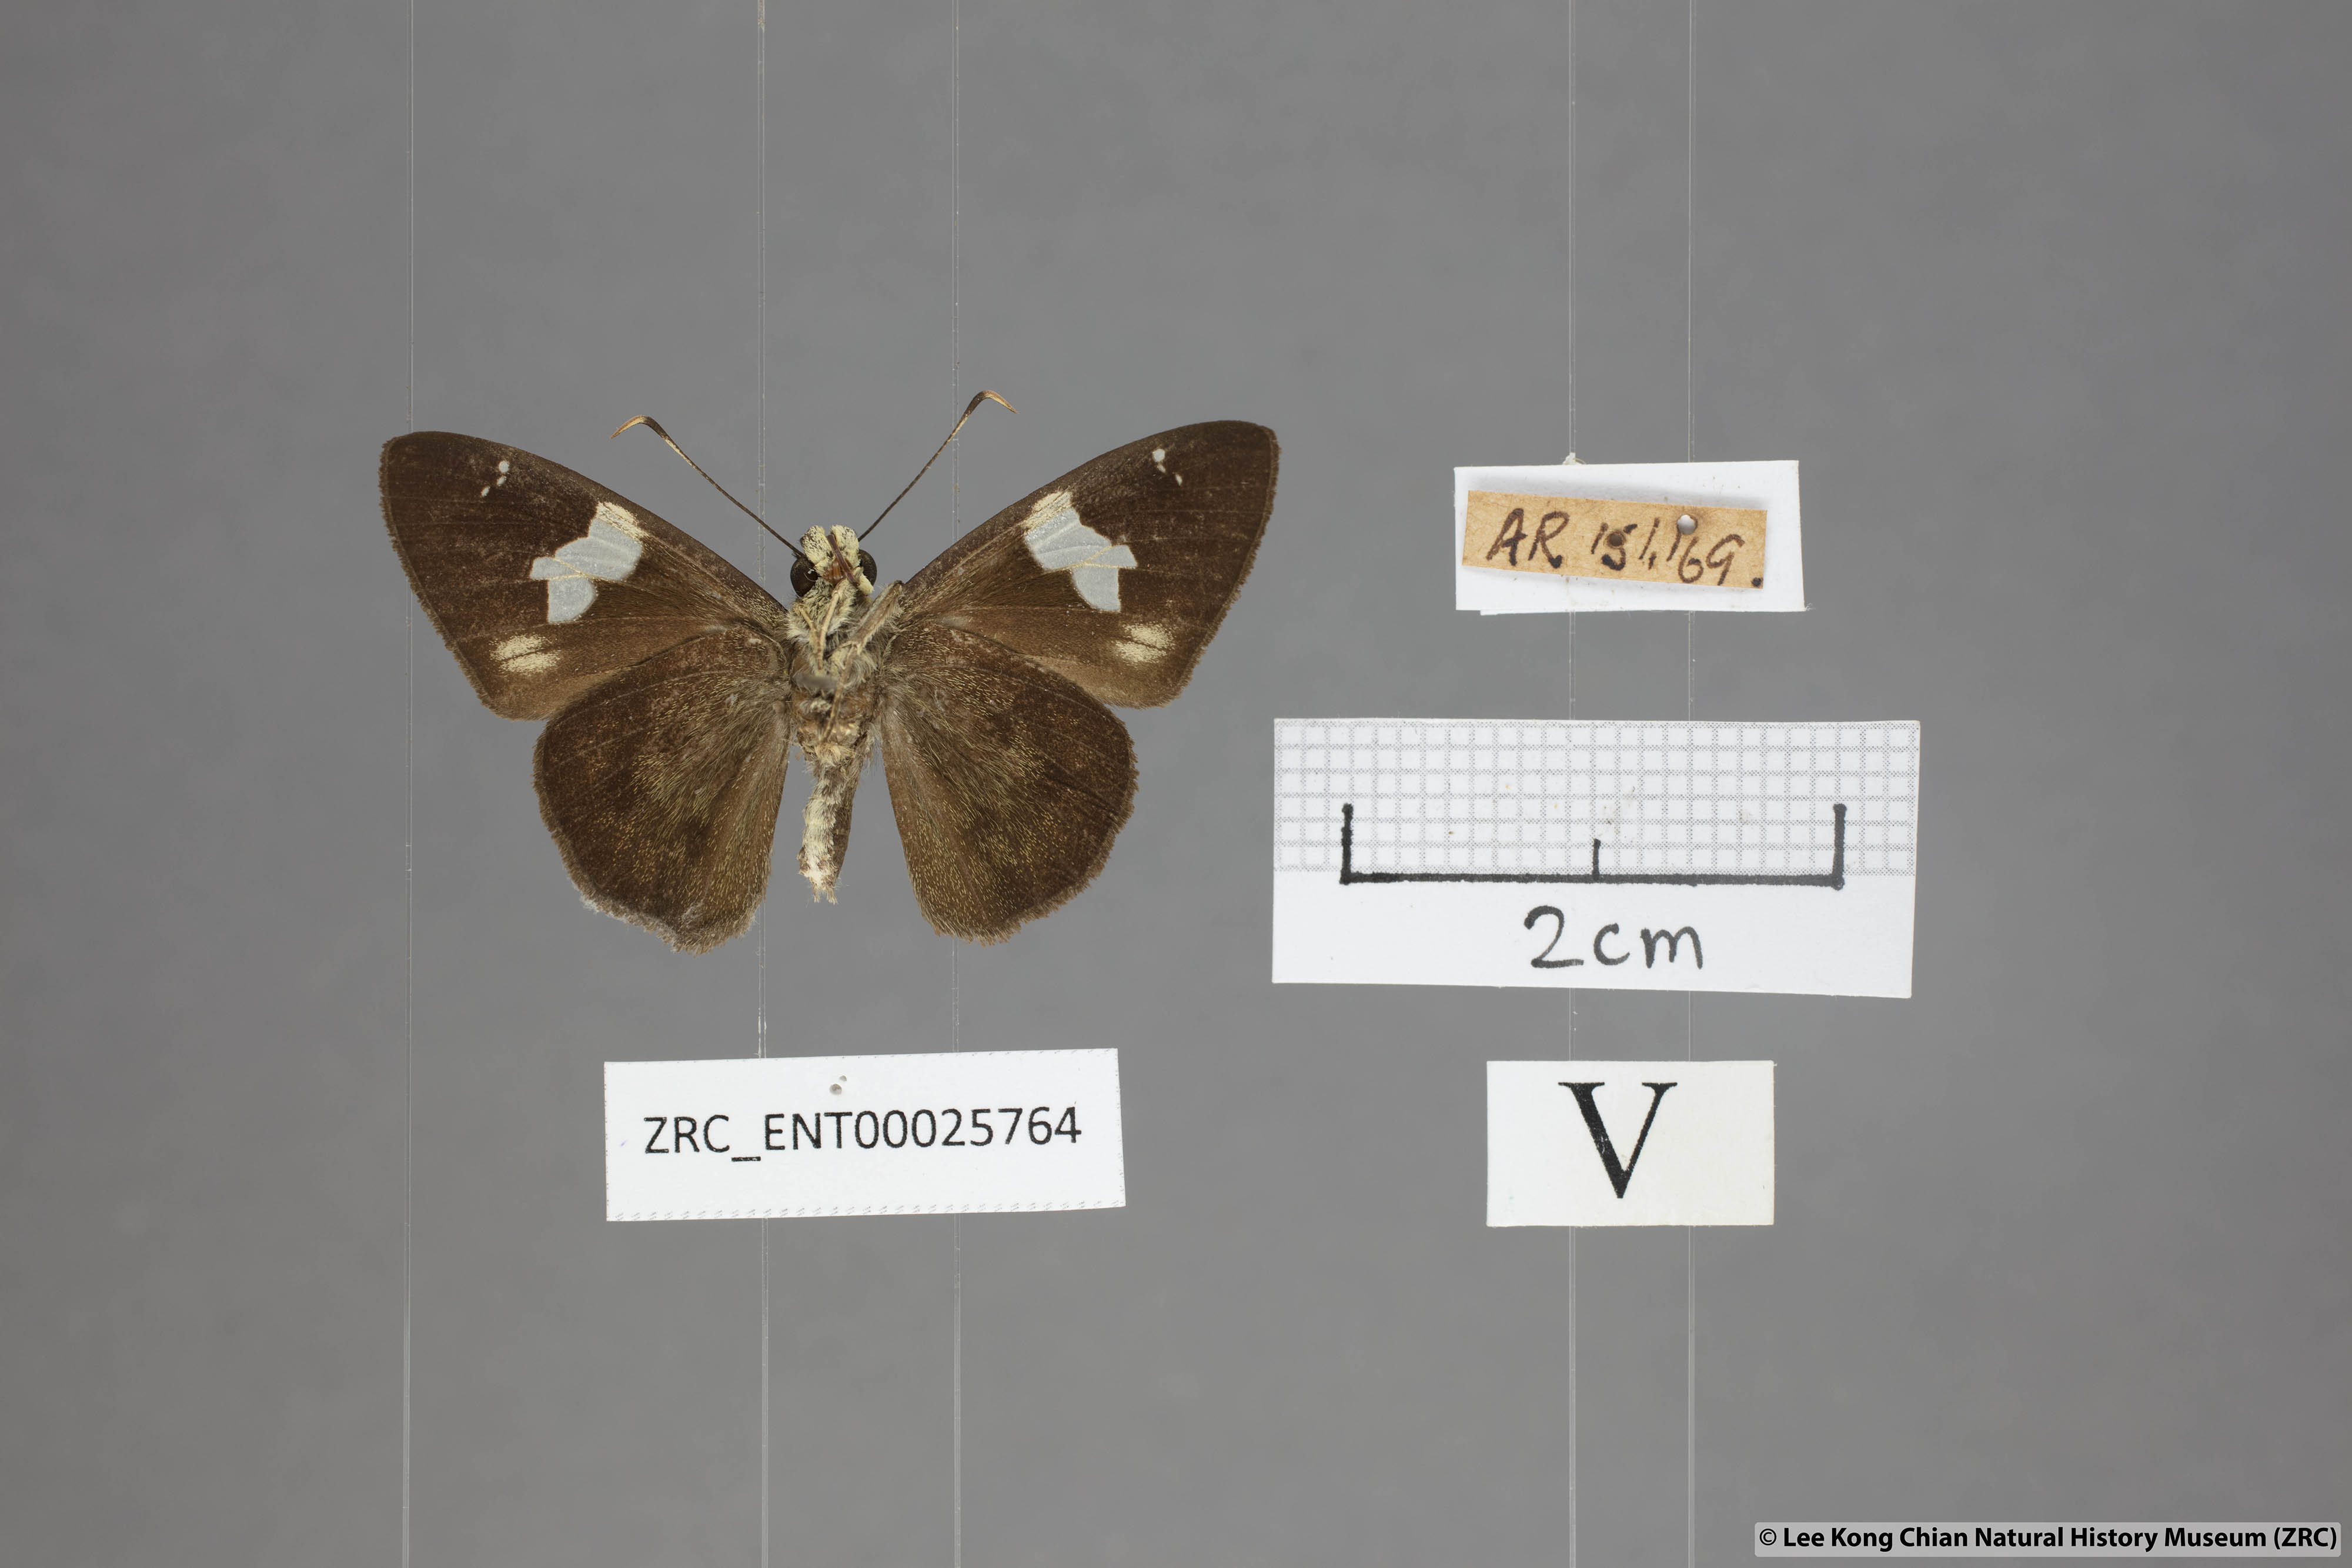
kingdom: Animalia
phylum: Arthropoda
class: Insecta
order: Lepidoptera
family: Hesperiidae
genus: Celaenorrhinus
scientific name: Celaenorrhinus asmara
